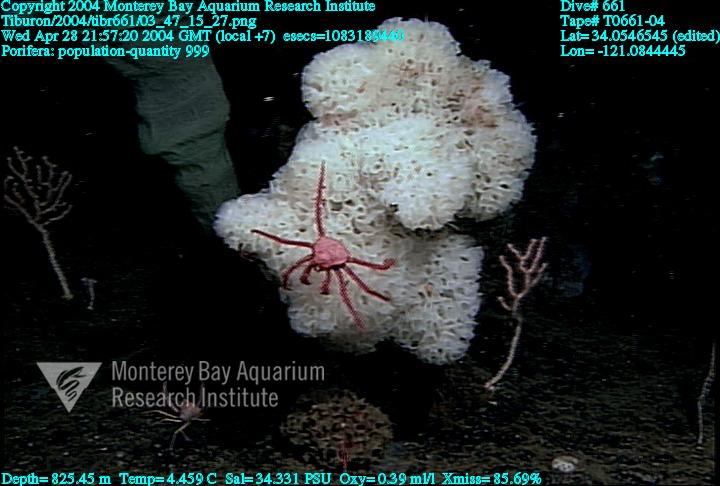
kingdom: Animalia
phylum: Porifera
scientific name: Porifera
